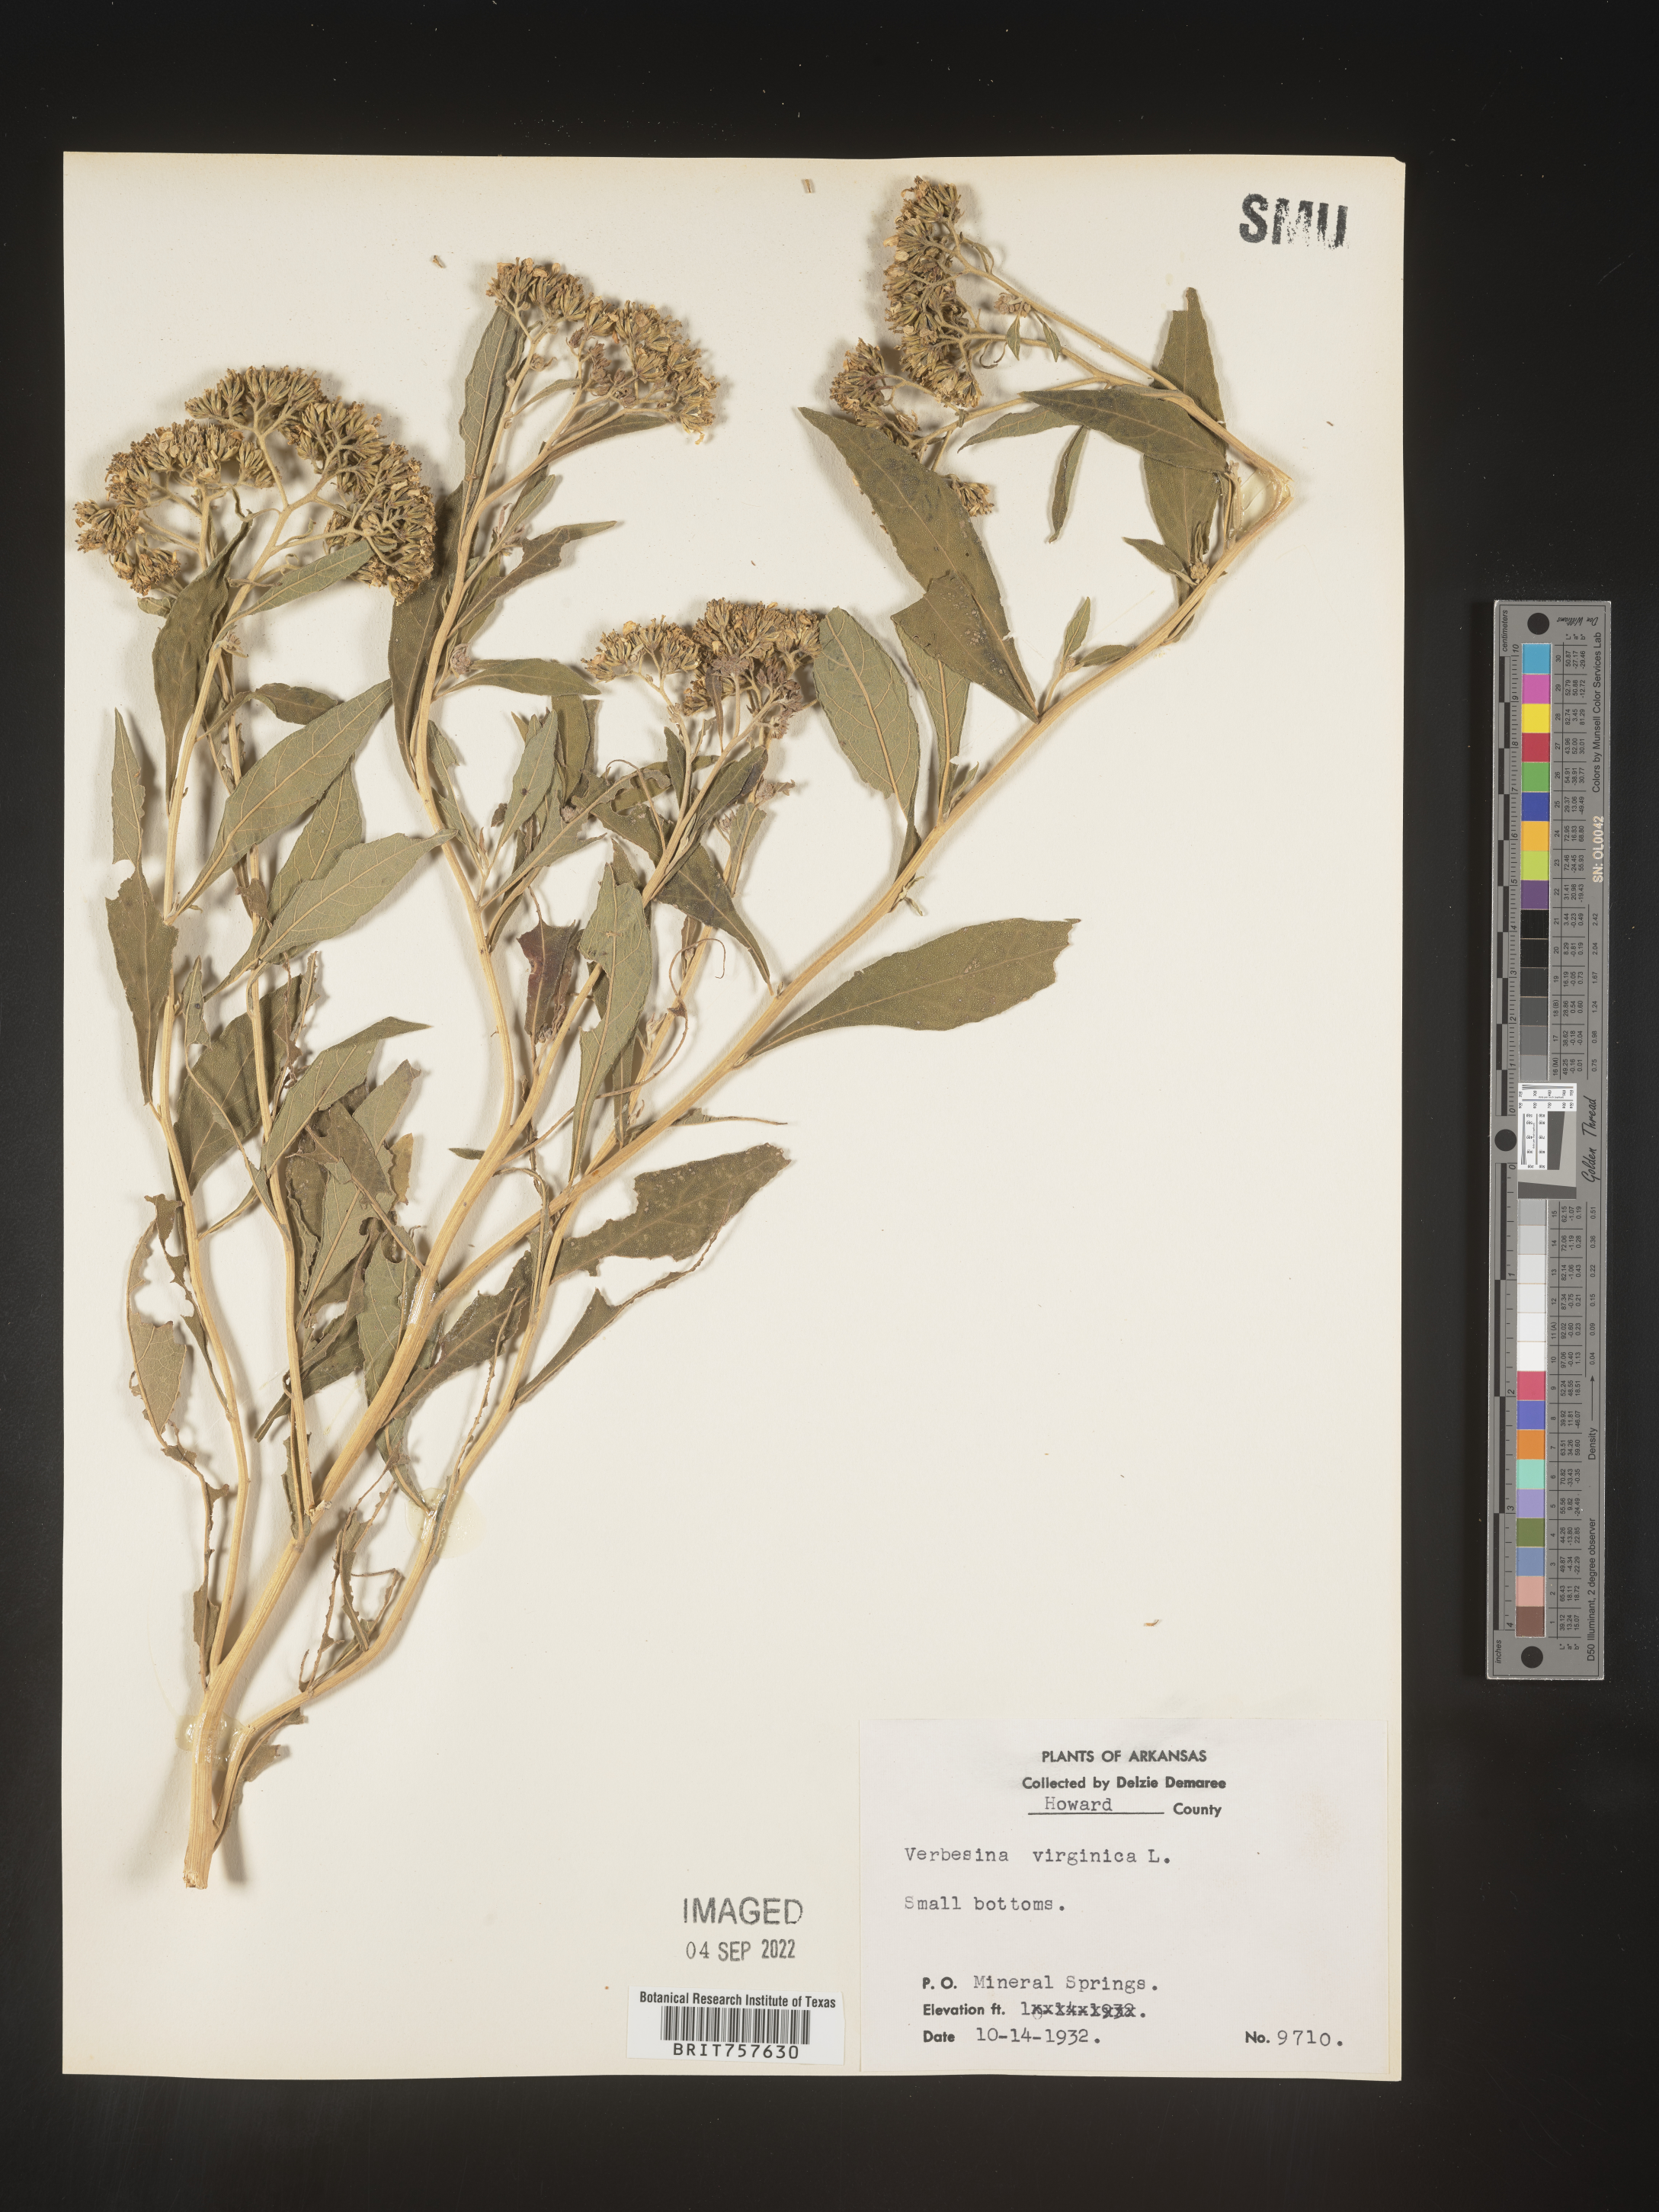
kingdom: Plantae
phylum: Tracheophyta
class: Magnoliopsida
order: Asterales
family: Asteraceae
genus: Verbesina
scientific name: Verbesina virginica
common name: Frostweed
